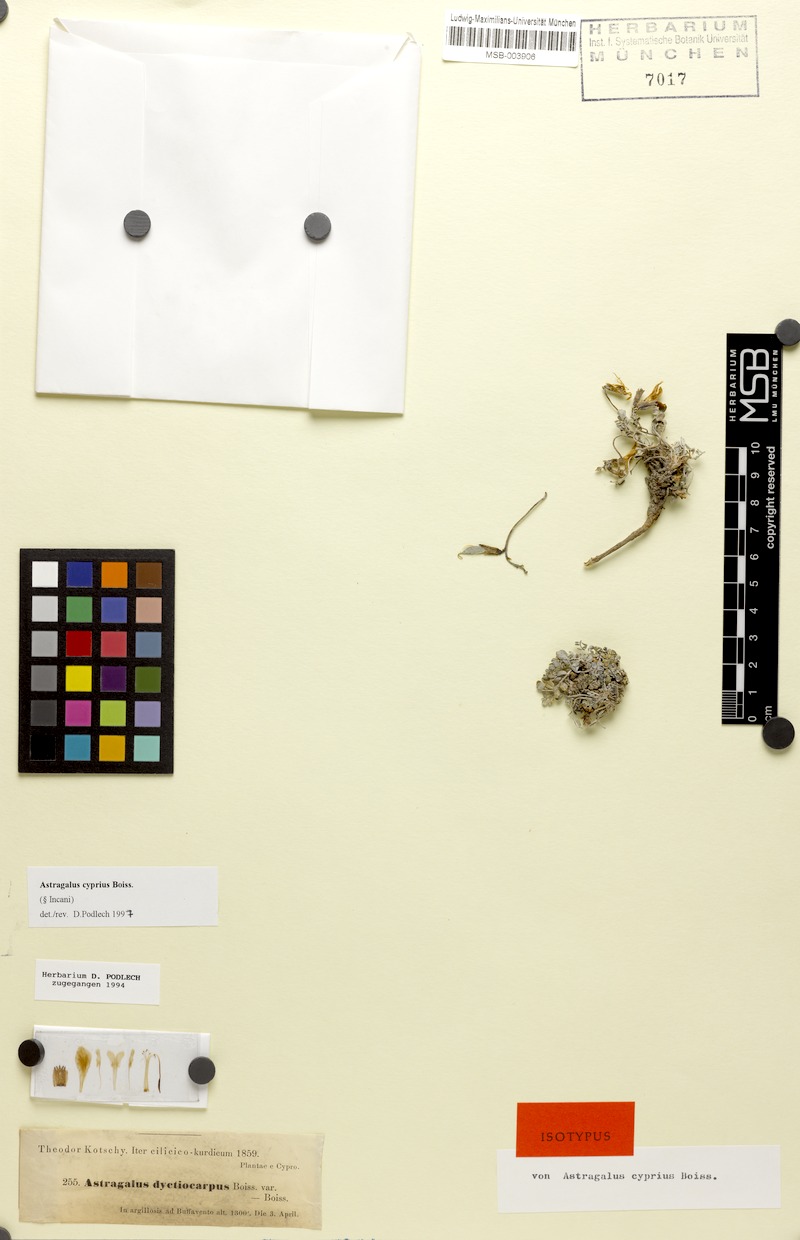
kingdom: Plantae
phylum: Tracheophyta
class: Magnoliopsida
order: Fabales
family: Fabaceae
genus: Astragalus
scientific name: Astragalus cyprius
